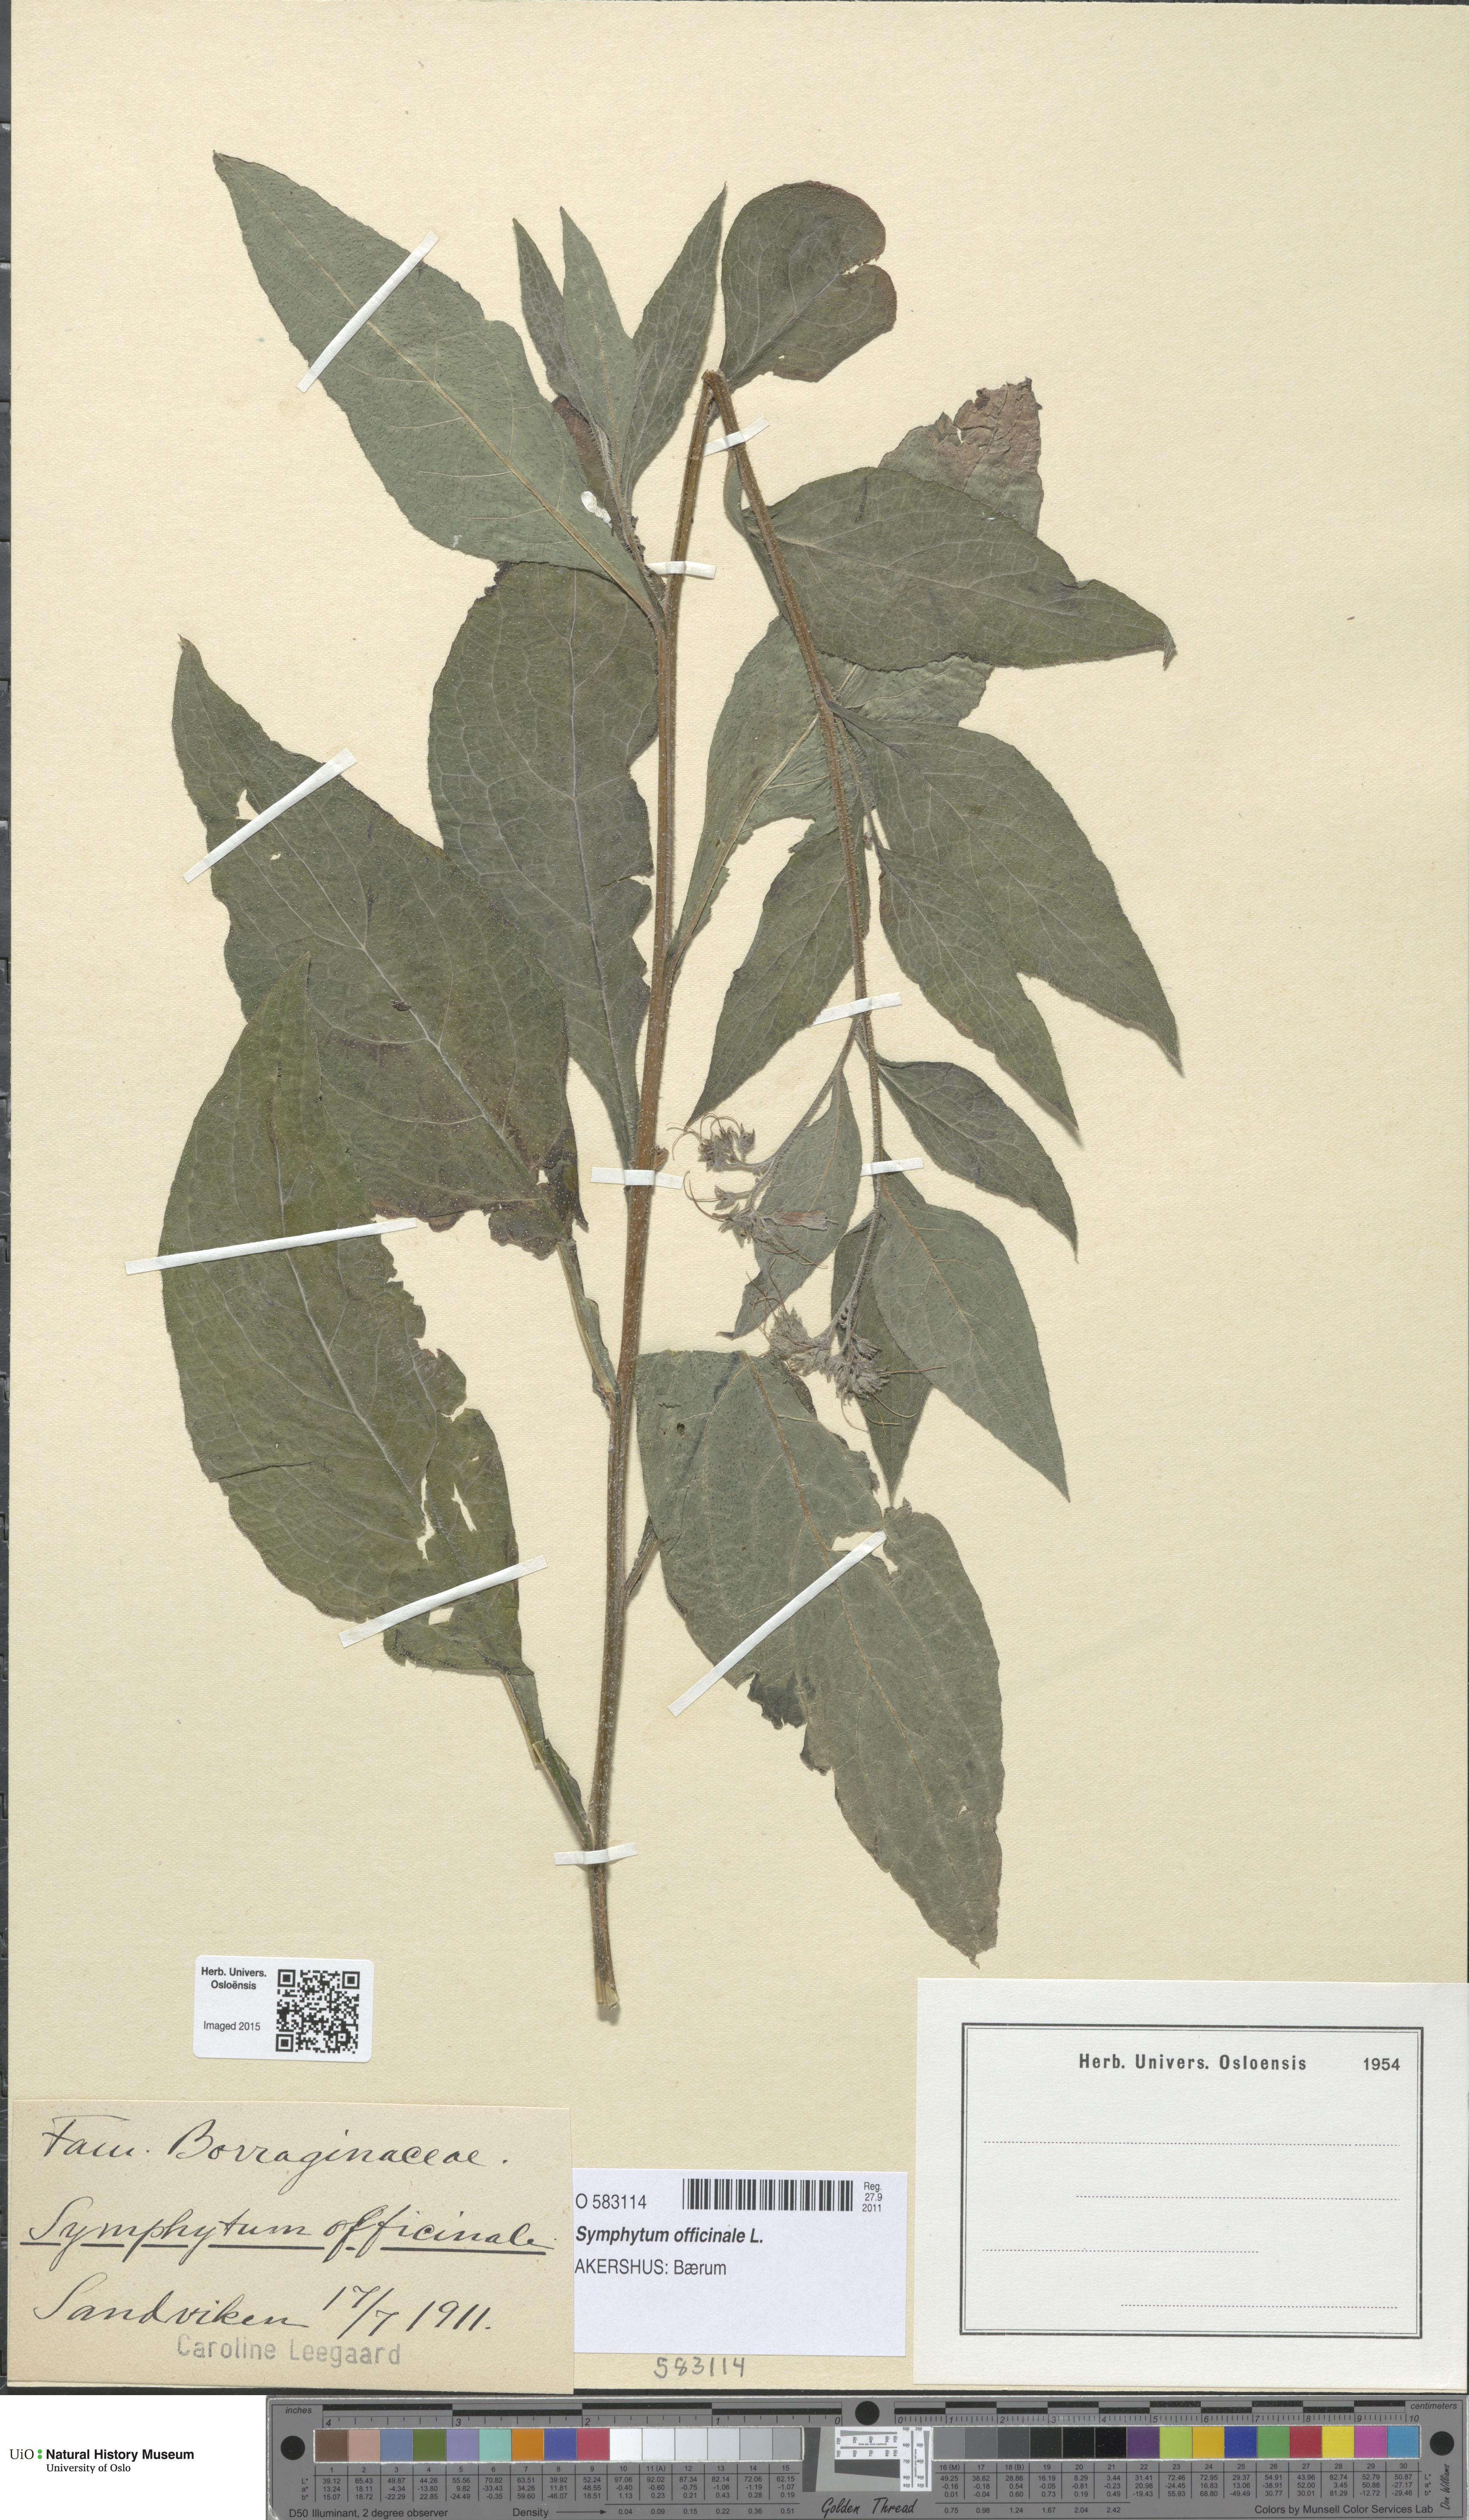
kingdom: Plantae
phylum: Tracheophyta
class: Magnoliopsida
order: Boraginales
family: Boraginaceae
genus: Symphytum
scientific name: Symphytum uplandicum
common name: Russian comfrey
